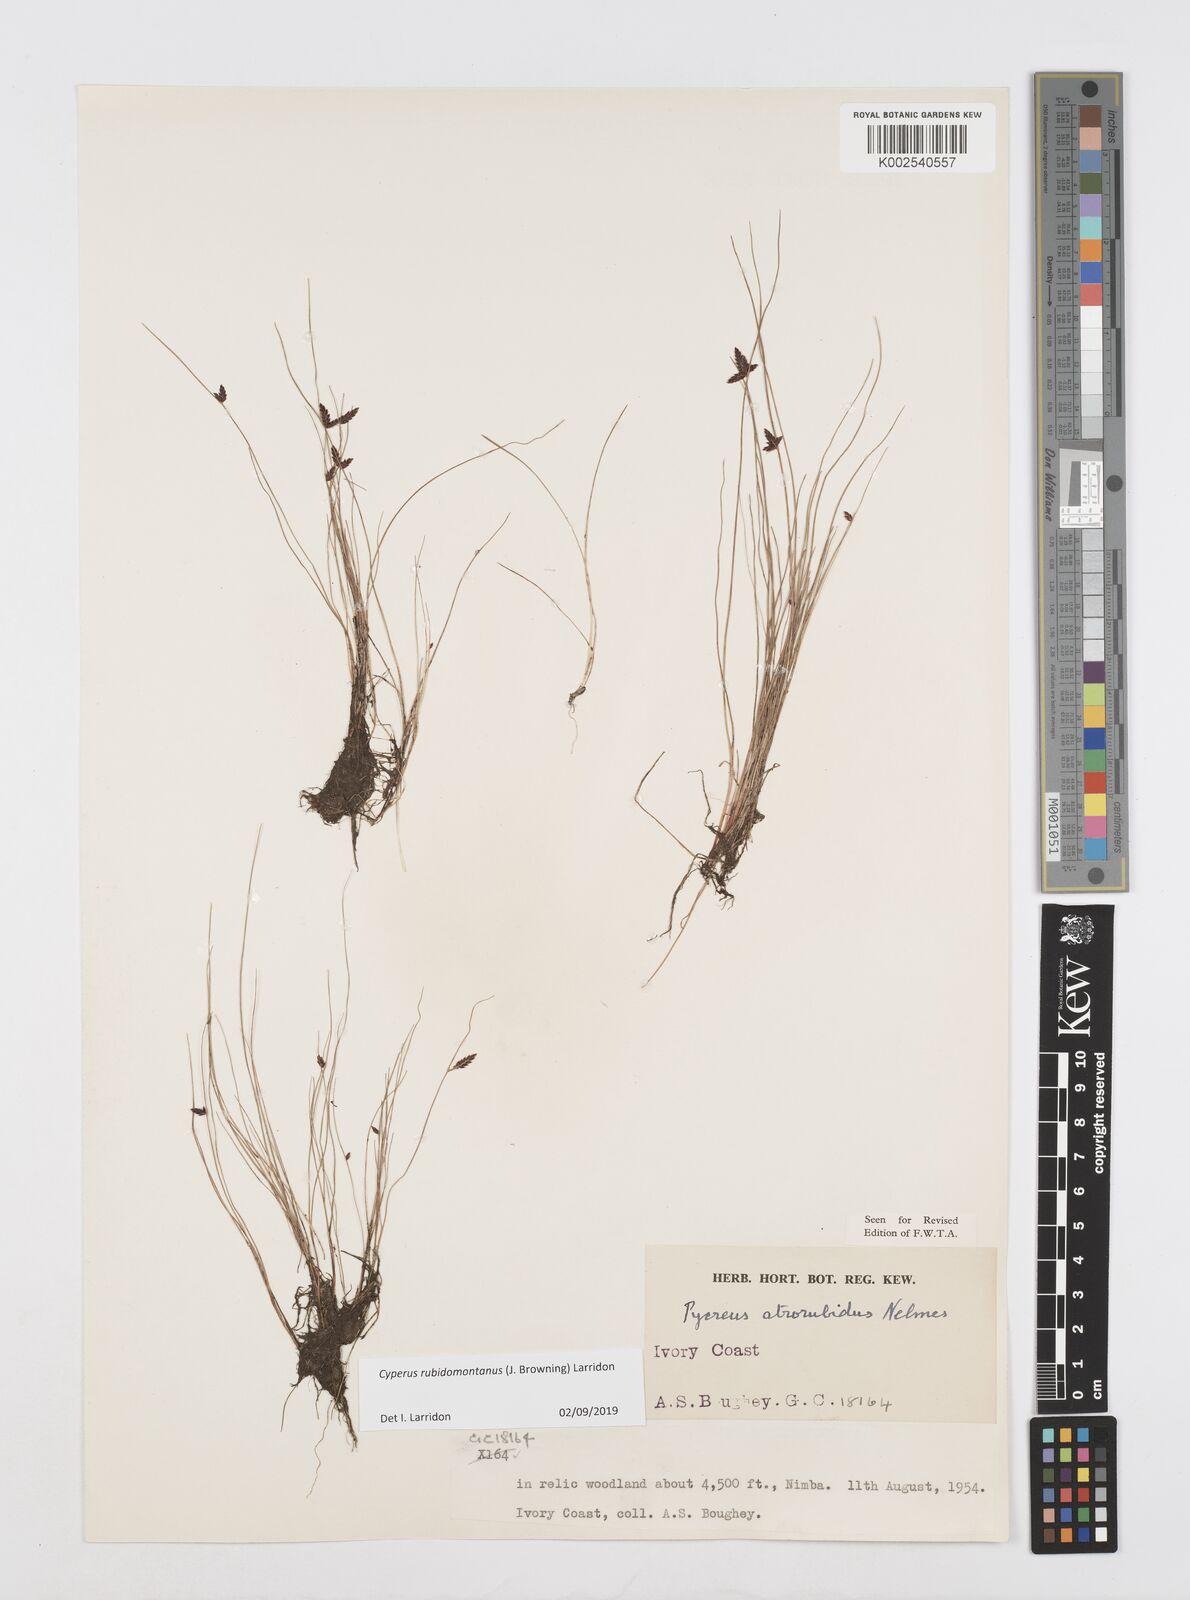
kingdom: Plantae
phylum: Tracheophyta
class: Liliopsida
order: Poales
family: Cyperaceae
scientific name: Cyperaceae
